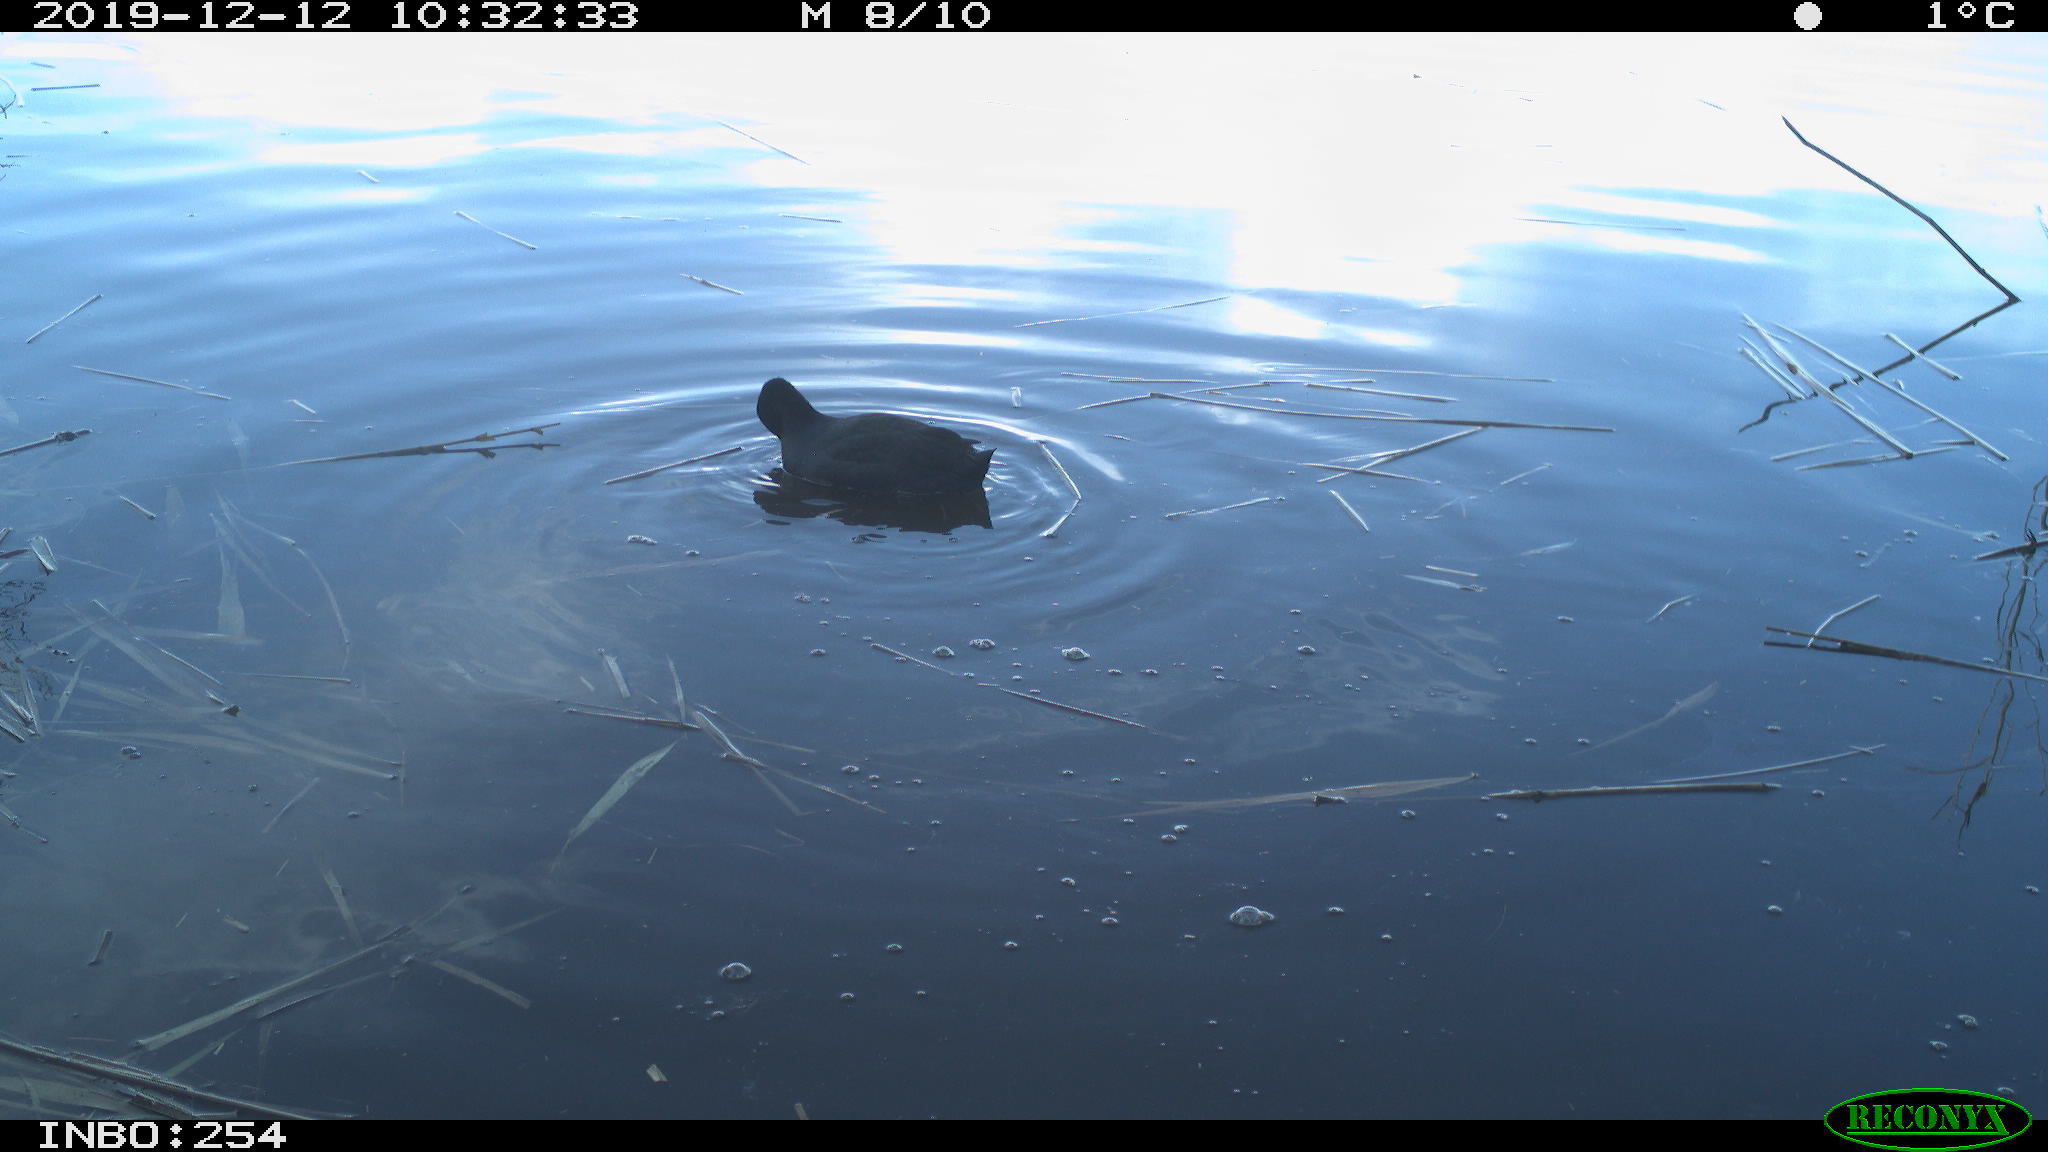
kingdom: Animalia
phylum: Chordata
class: Aves
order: Gruiformes
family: Rallidae
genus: Fulica
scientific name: Fulica atra
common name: Eurasian coot
